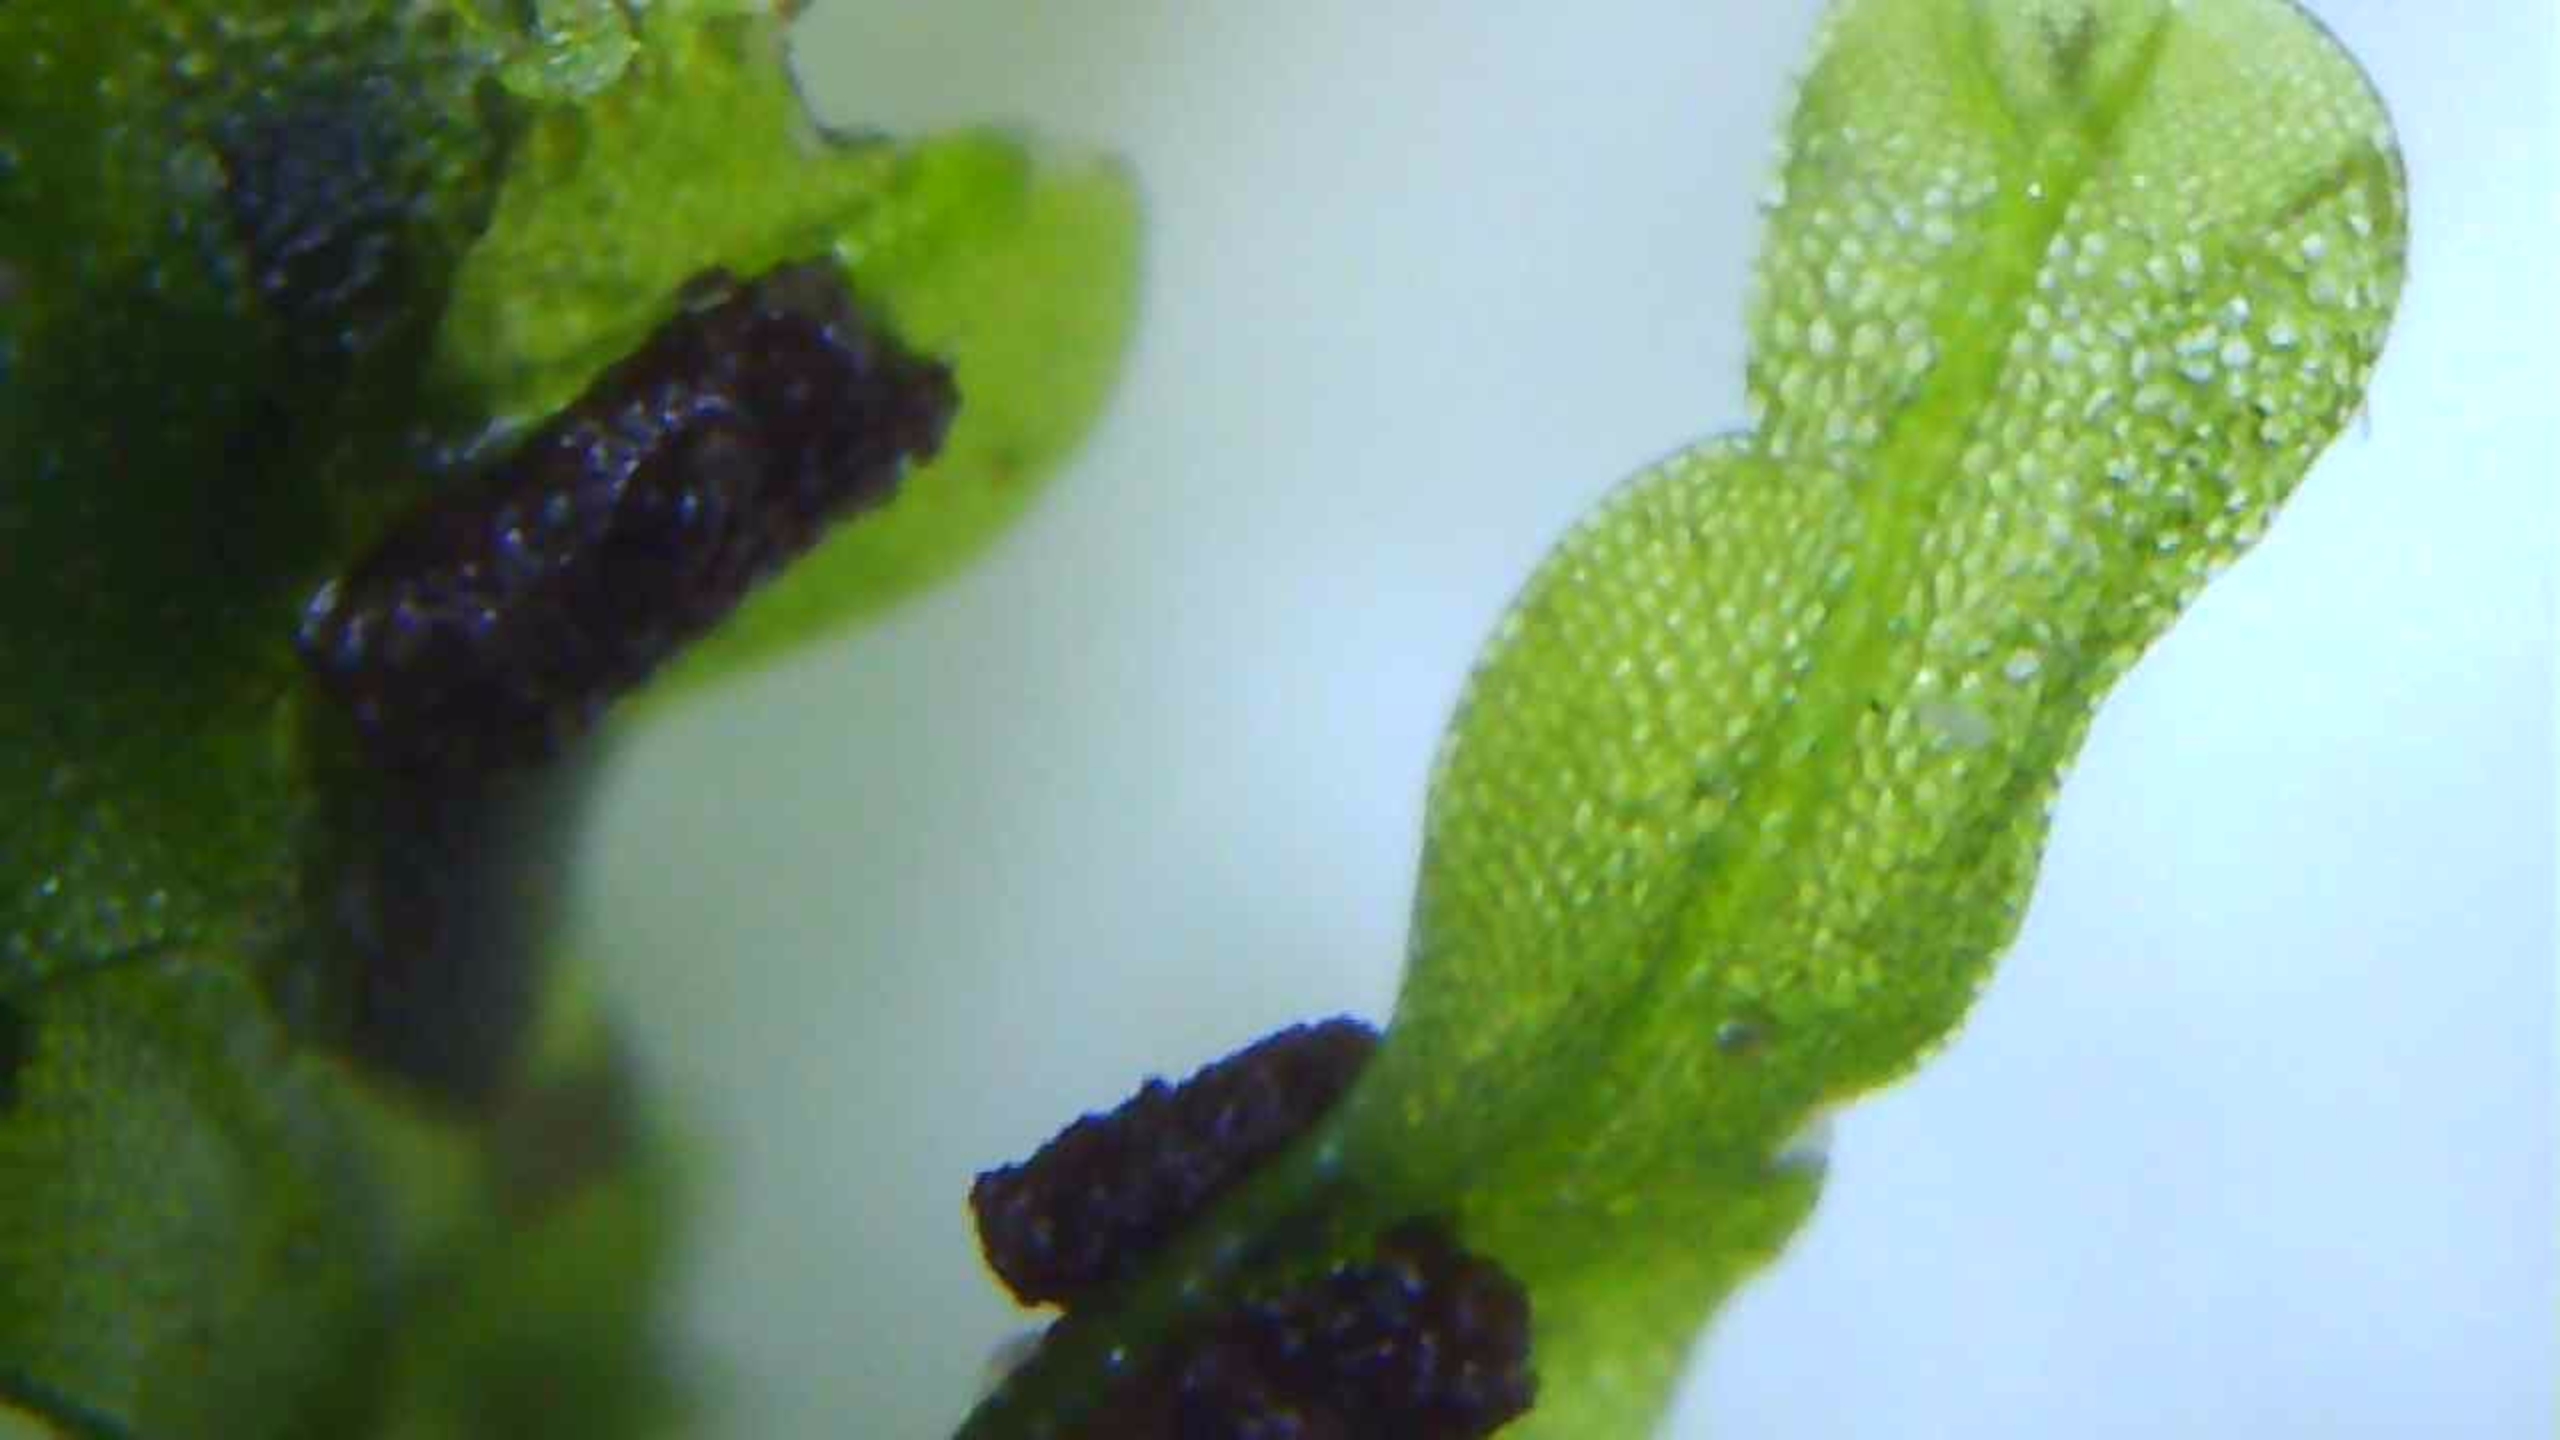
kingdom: Plantae
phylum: Marchantiophyta
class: Jungermanniopsida
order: Metzgeriales
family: Metzgeriaceae
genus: Metzgeria
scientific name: Metzgeria furcata
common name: Almindelig gaffelløv
